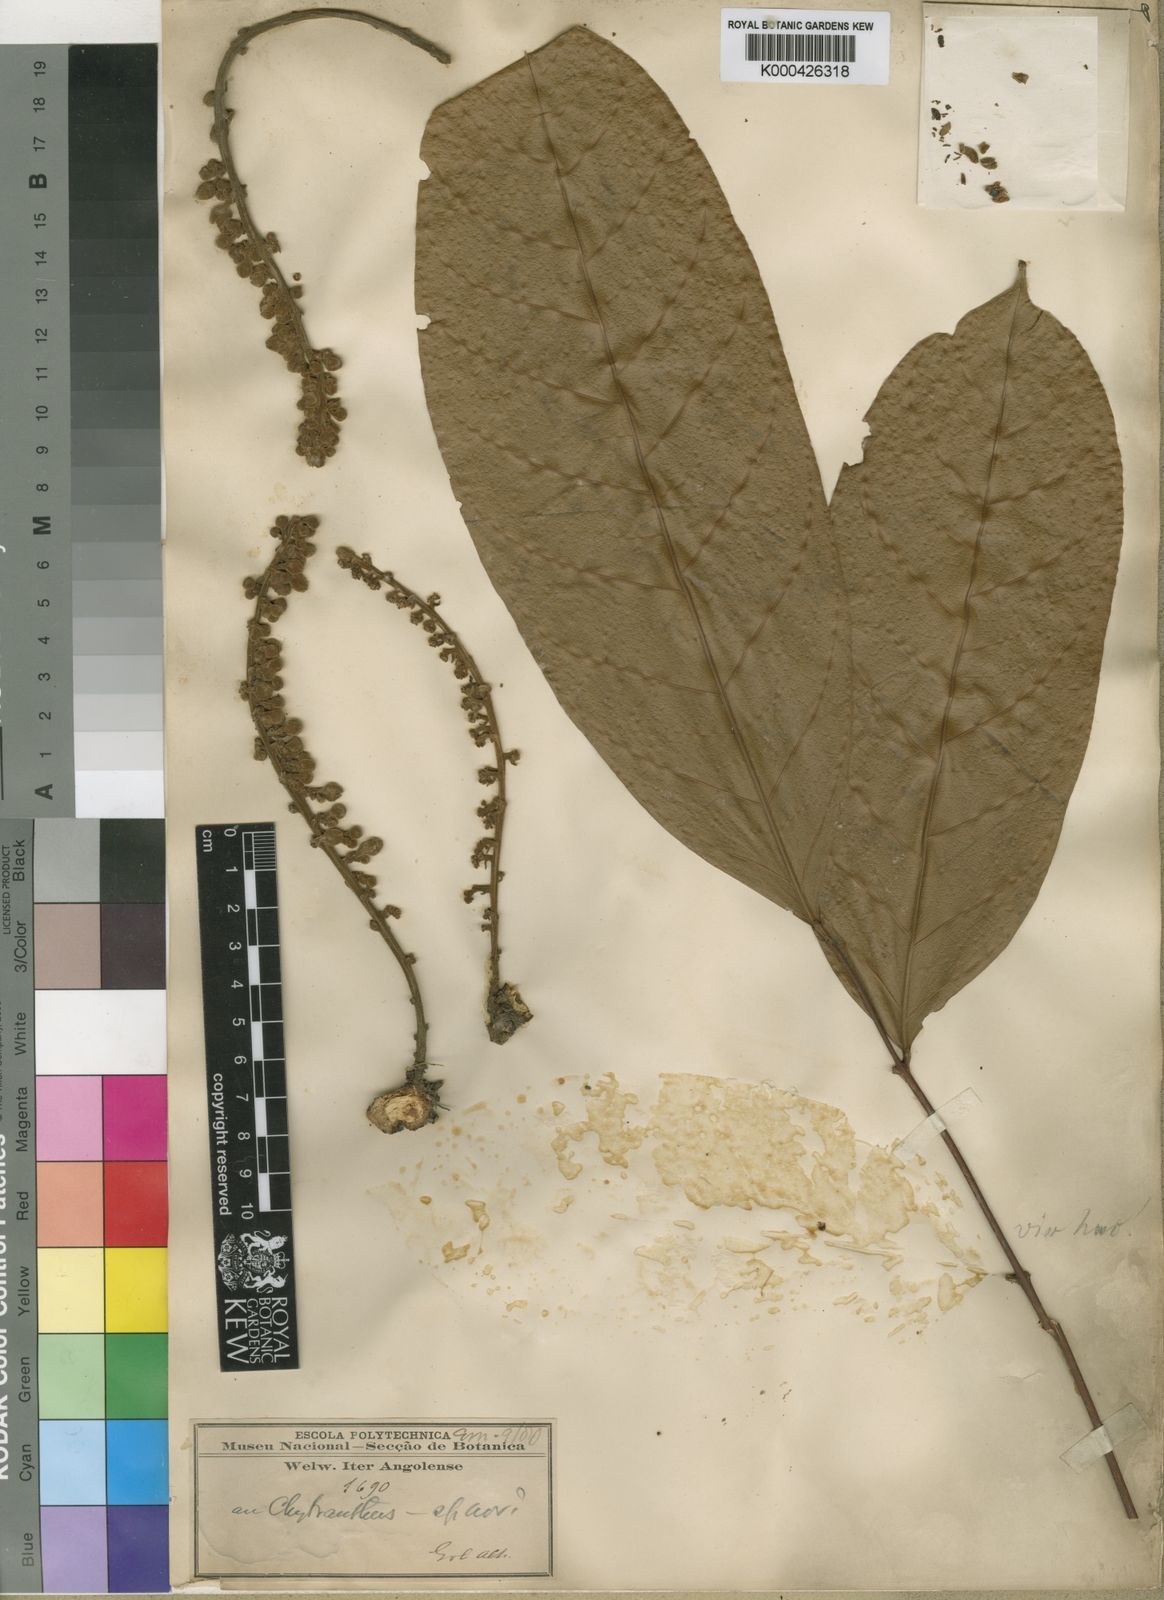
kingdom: Plantae
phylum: Tracheophyta
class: Magnoliopsida
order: Sapindales
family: Sapindaceae
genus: Chytranthus
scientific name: Chytranthus carneus
